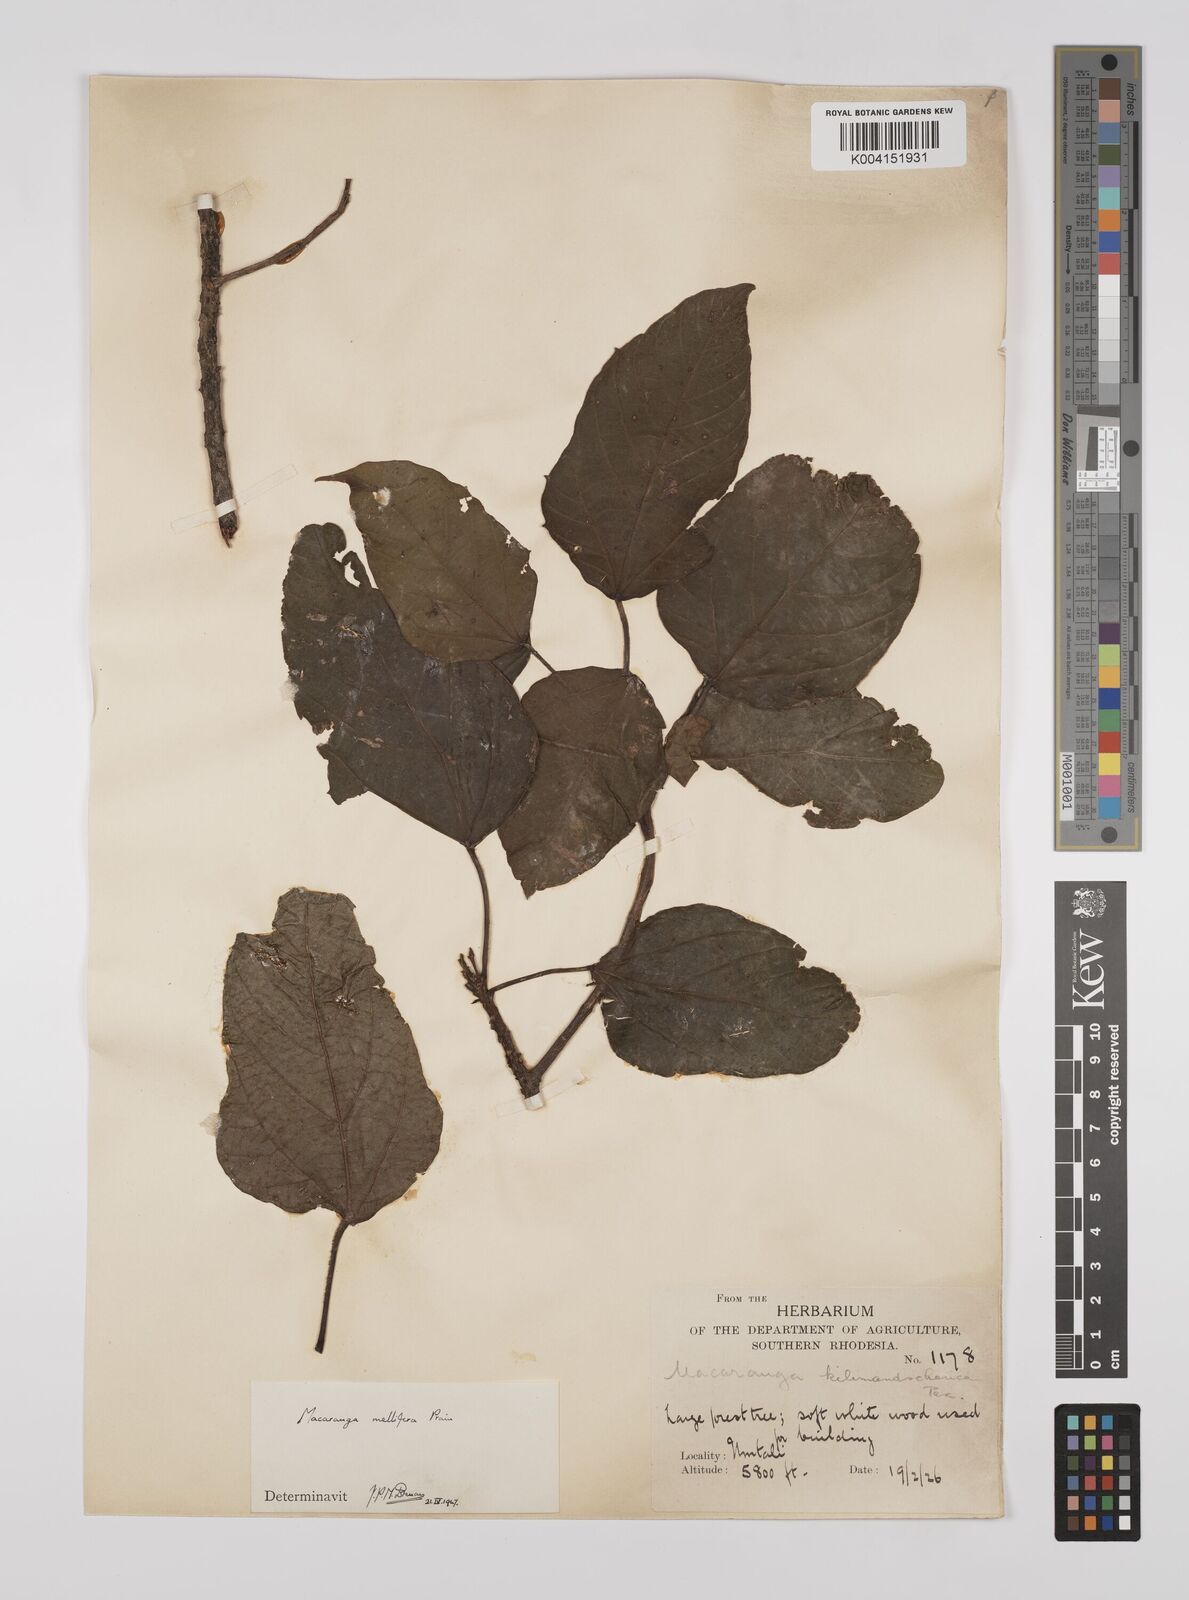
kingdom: Plantae
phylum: Tracheophyta
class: Magnoliopsida
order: Malpighiales
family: Euphorbiaceae
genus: Macaranga
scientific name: Macaranga mellifera
